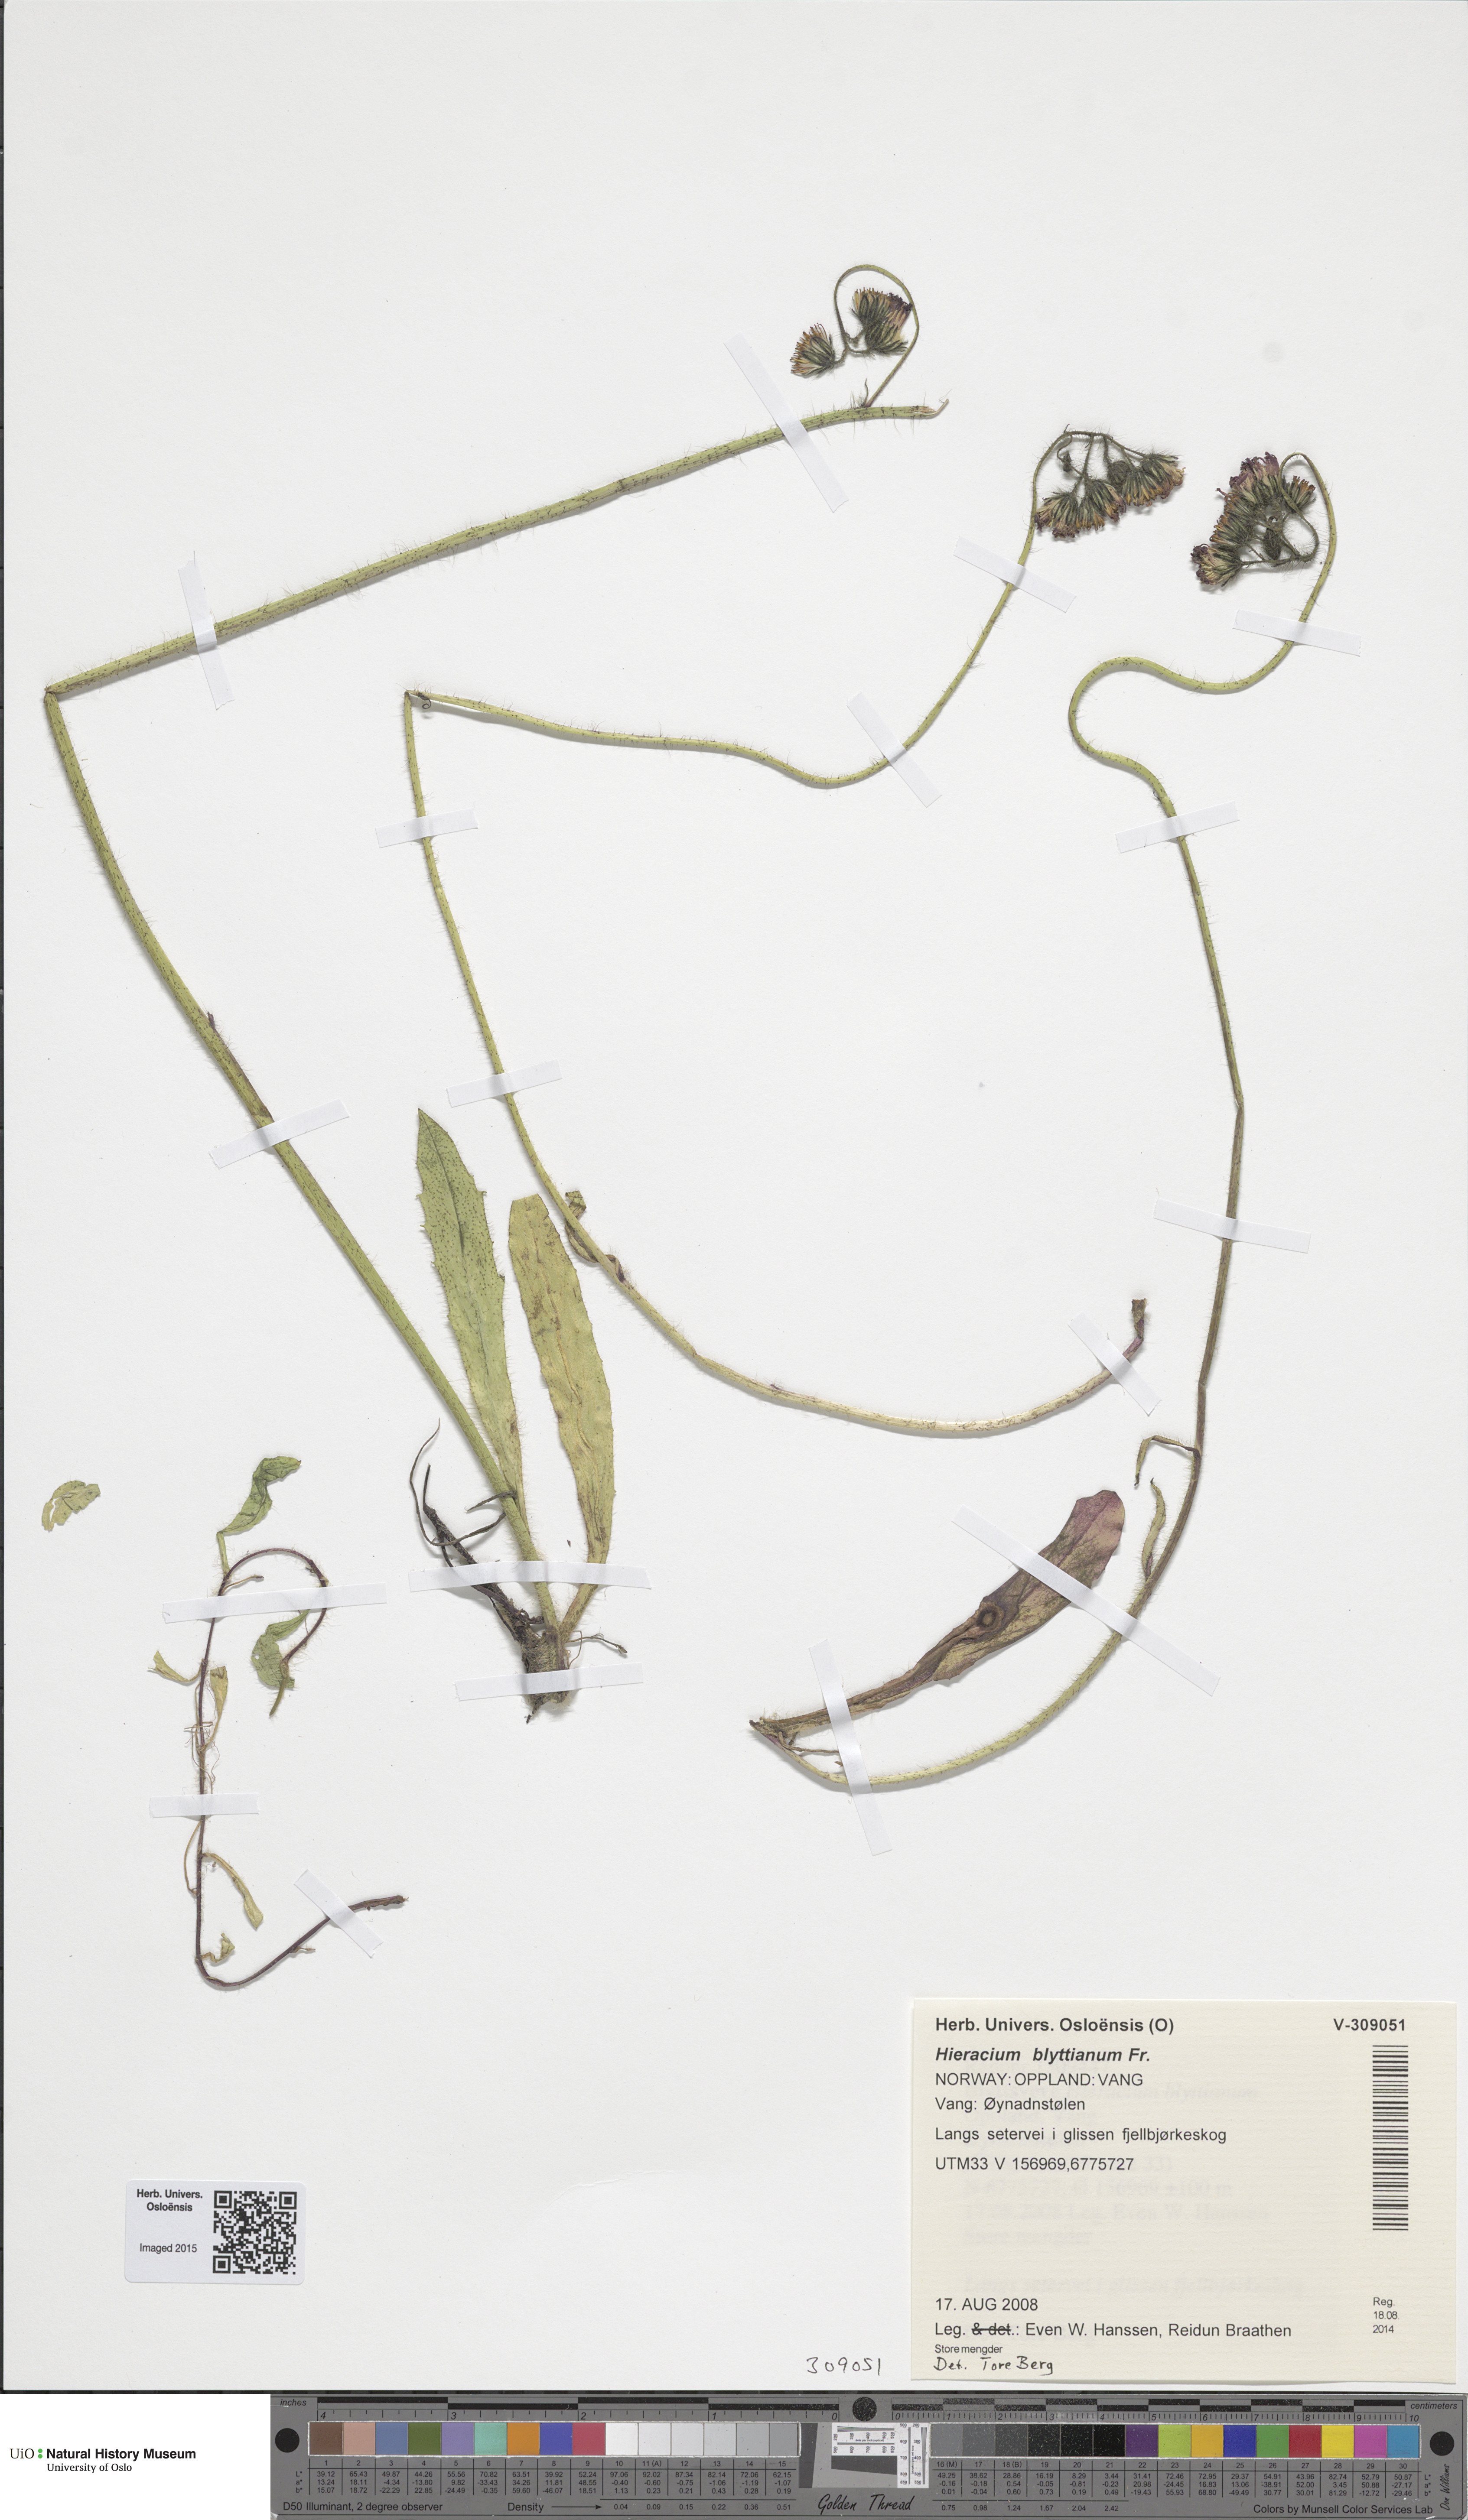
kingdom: Plantae
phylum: Tracheophyta
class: Magnoliopsida
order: Asterales
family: Asteraceae
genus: Pilosella
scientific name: Pilosella blyttiana
